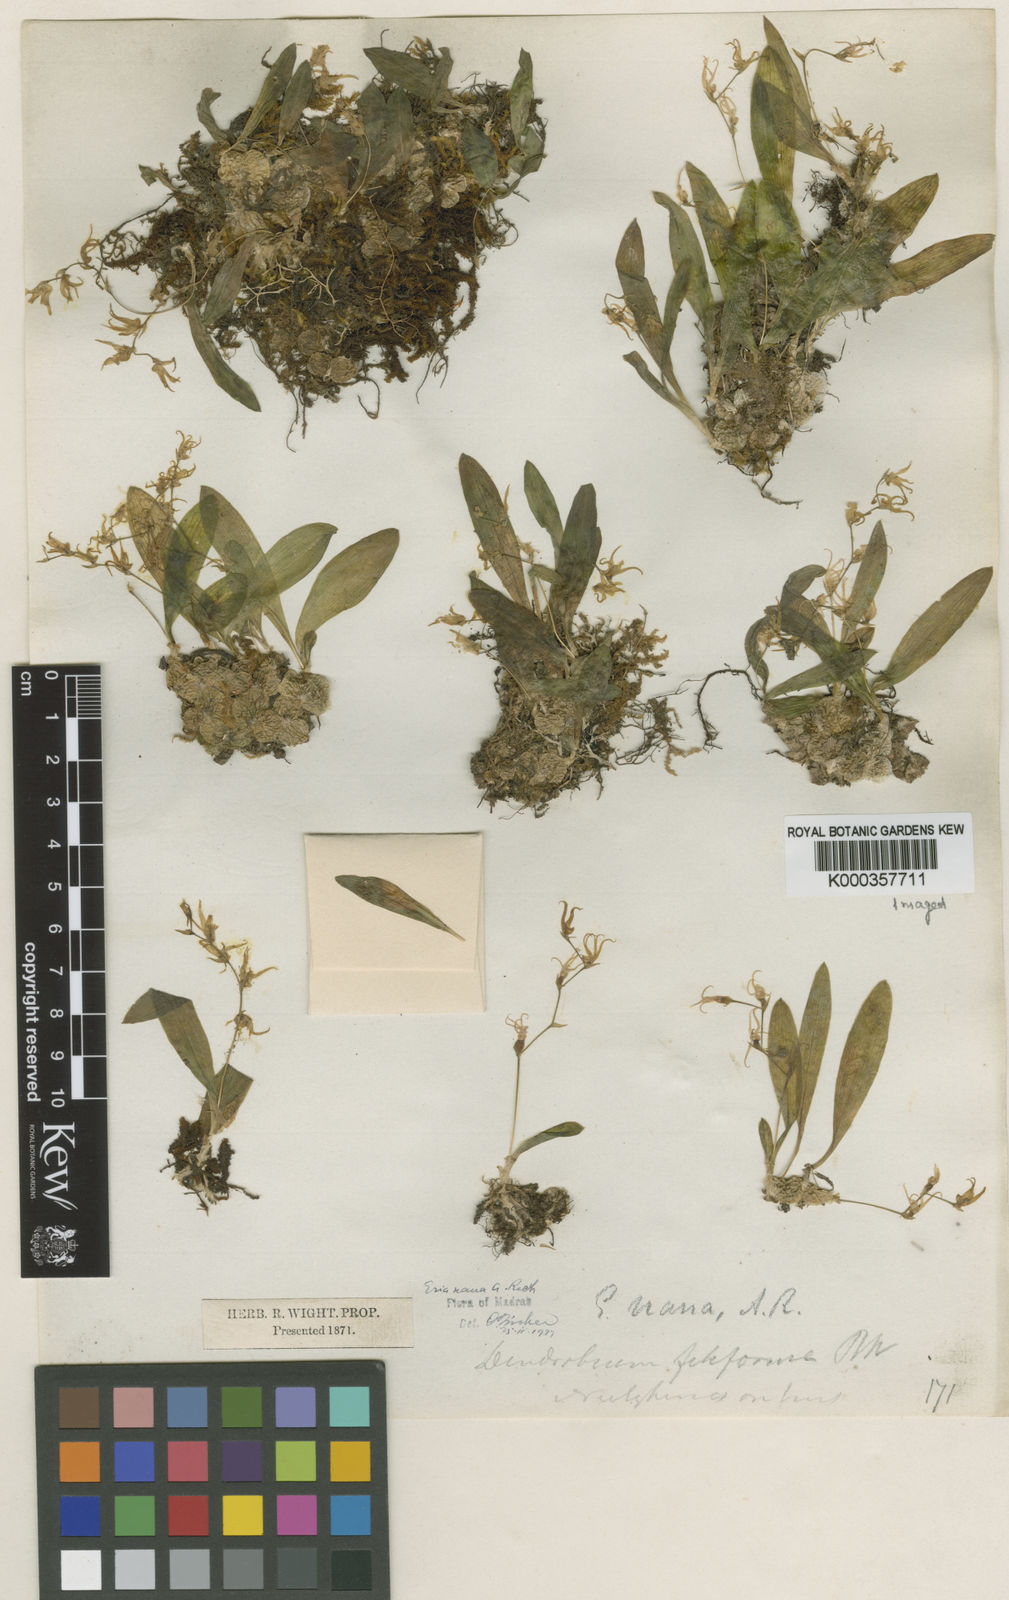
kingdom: Plantae
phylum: Tracheophyta
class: Liliopsida
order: Asparagales
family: Orchidaceae
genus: Porpax
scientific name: Porpax nana
